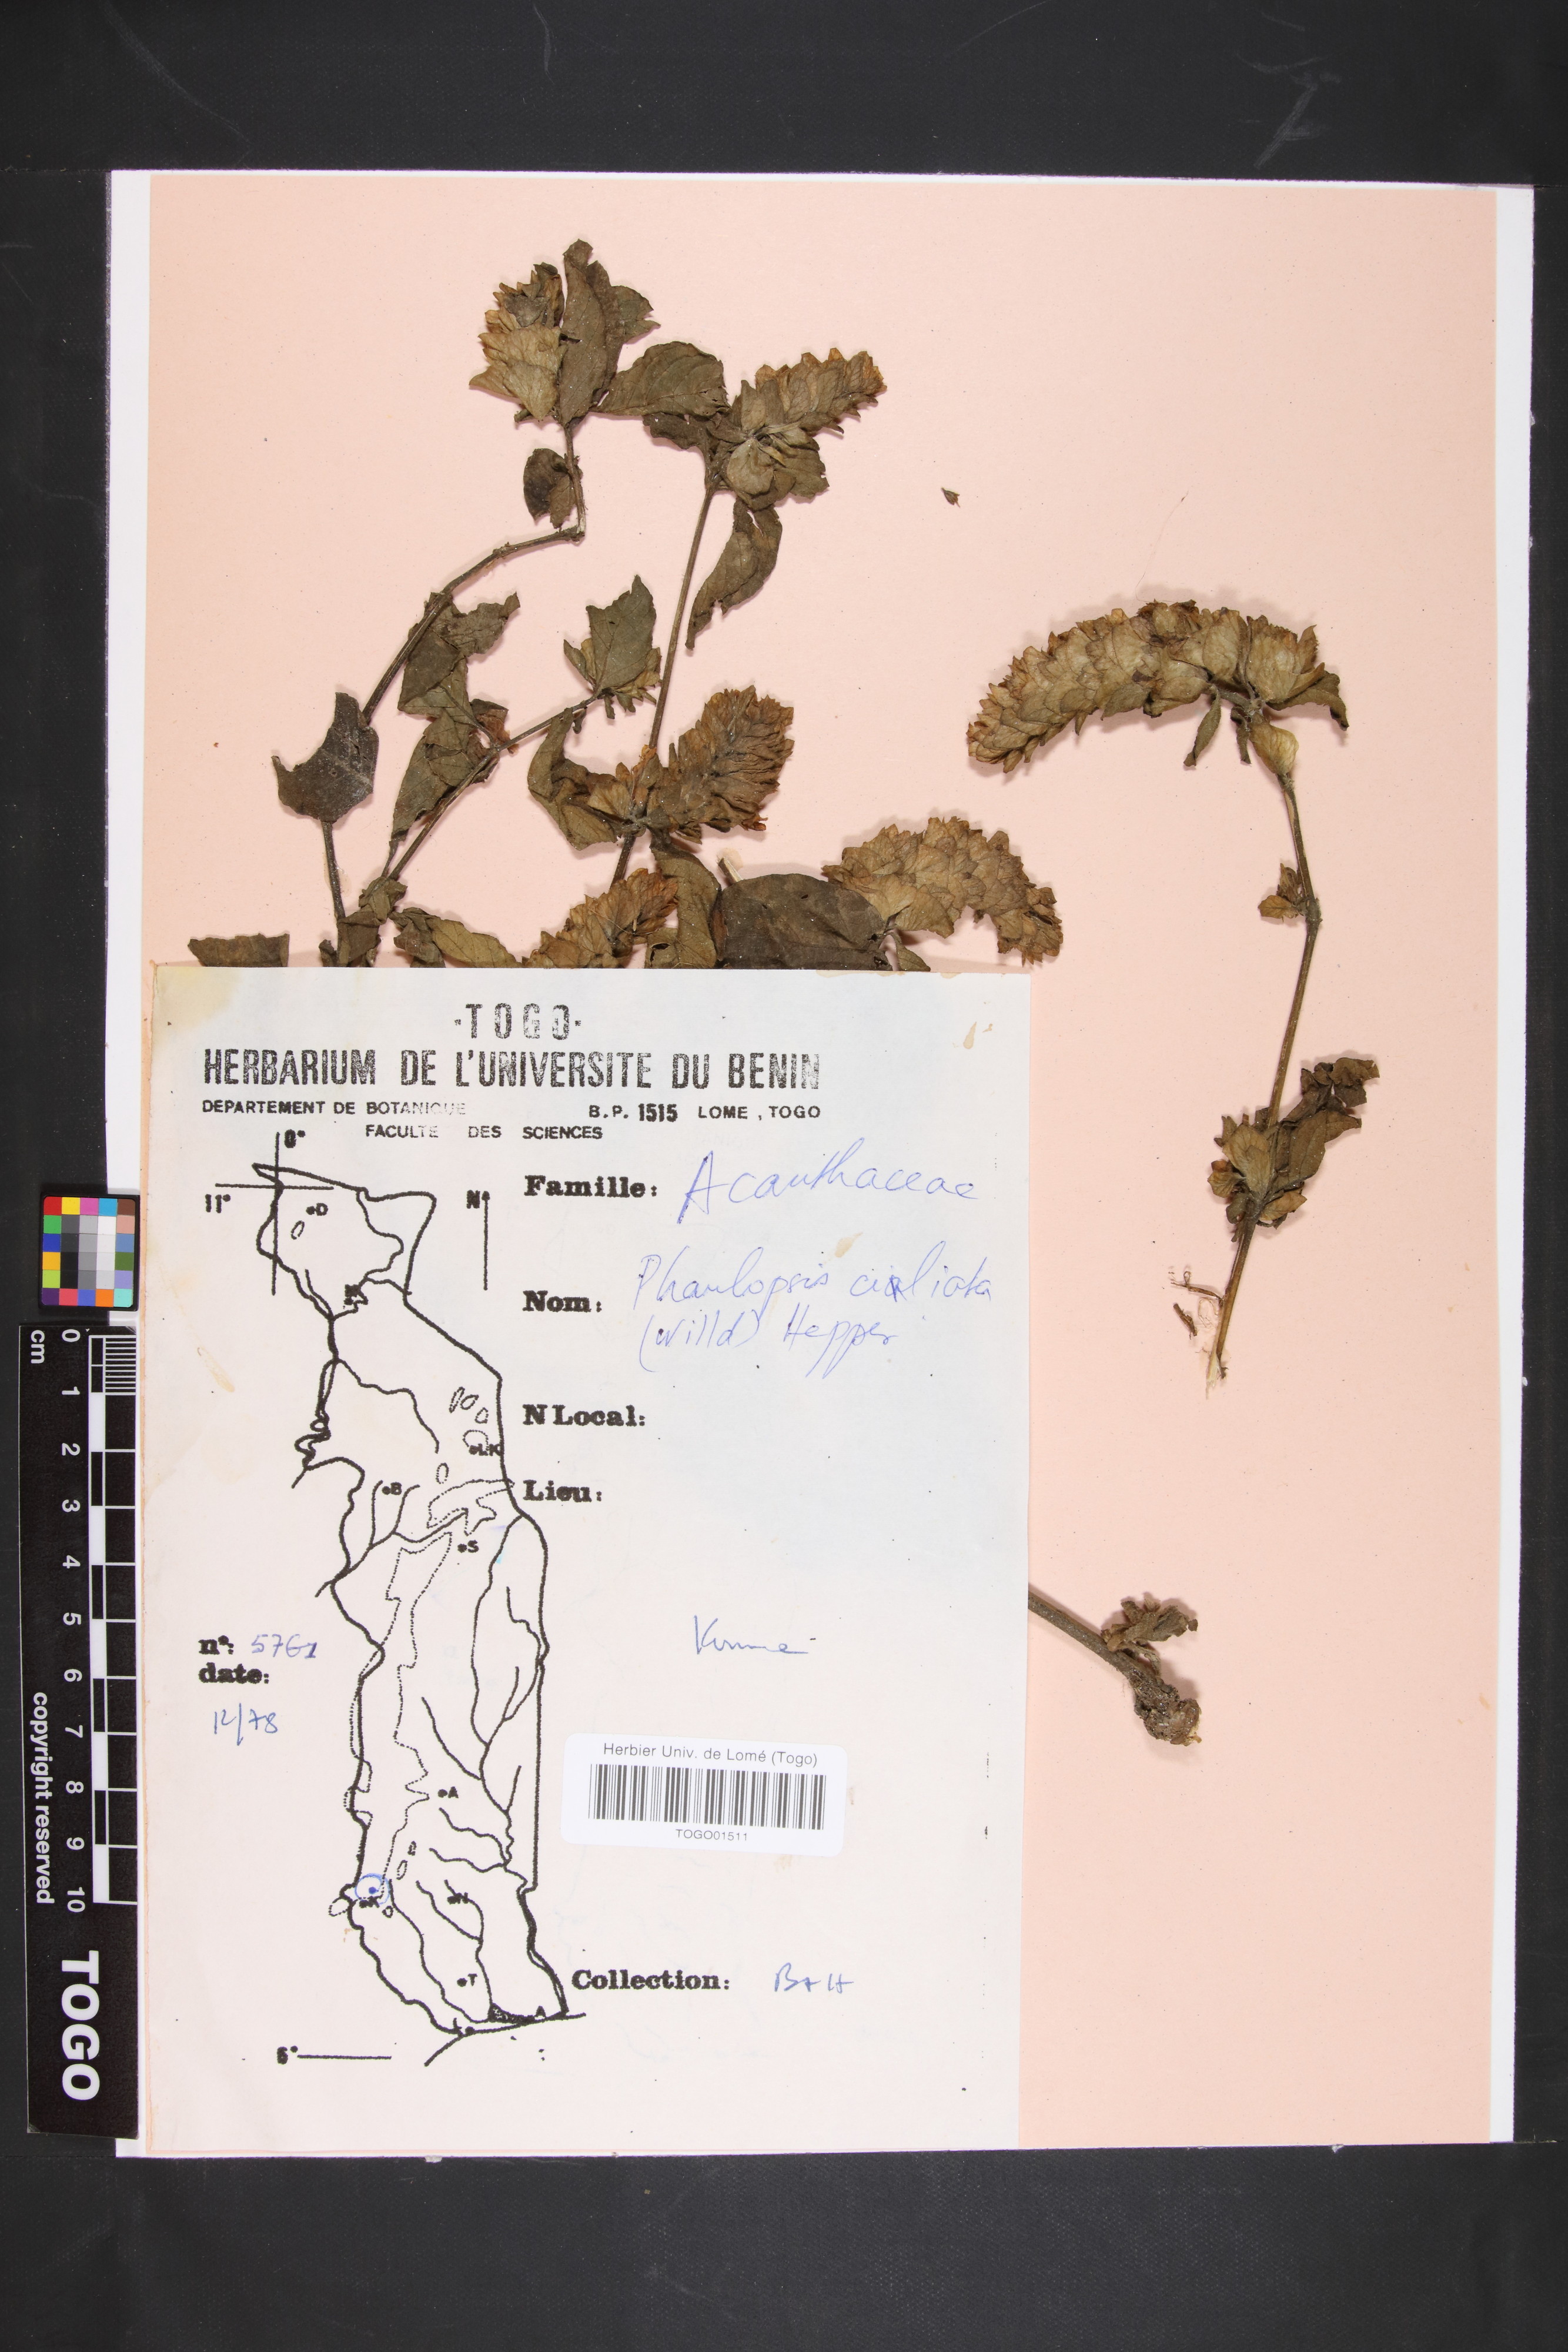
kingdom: Plantae
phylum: Tracheophyta
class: Magnoliopsida
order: Lamiales
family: Acanthaceae
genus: Phaulopsis
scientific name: Phaulopsis ciliata
